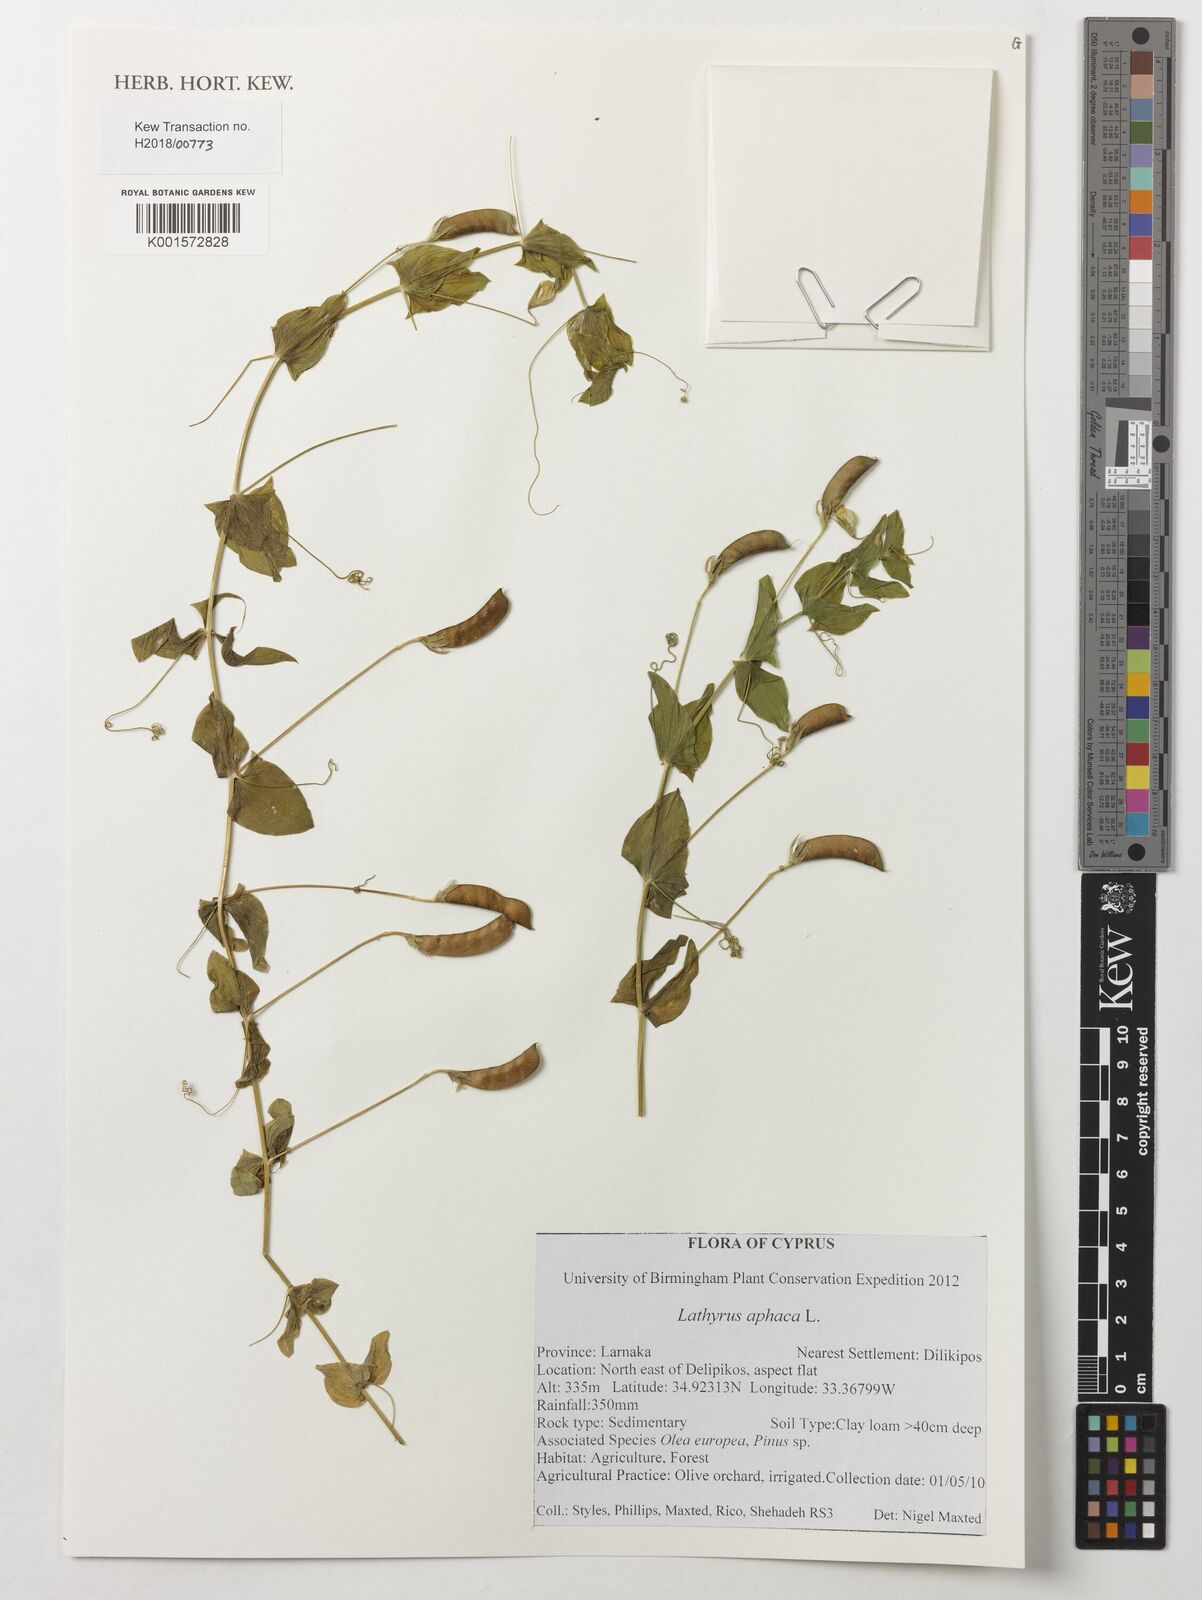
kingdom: Plantae
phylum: Tracheophyta
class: Magnoliopsida
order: Fabales
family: Fabaceae
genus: Lathyrus
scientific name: Lathyrus aphaca
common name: Yellow vetchling
